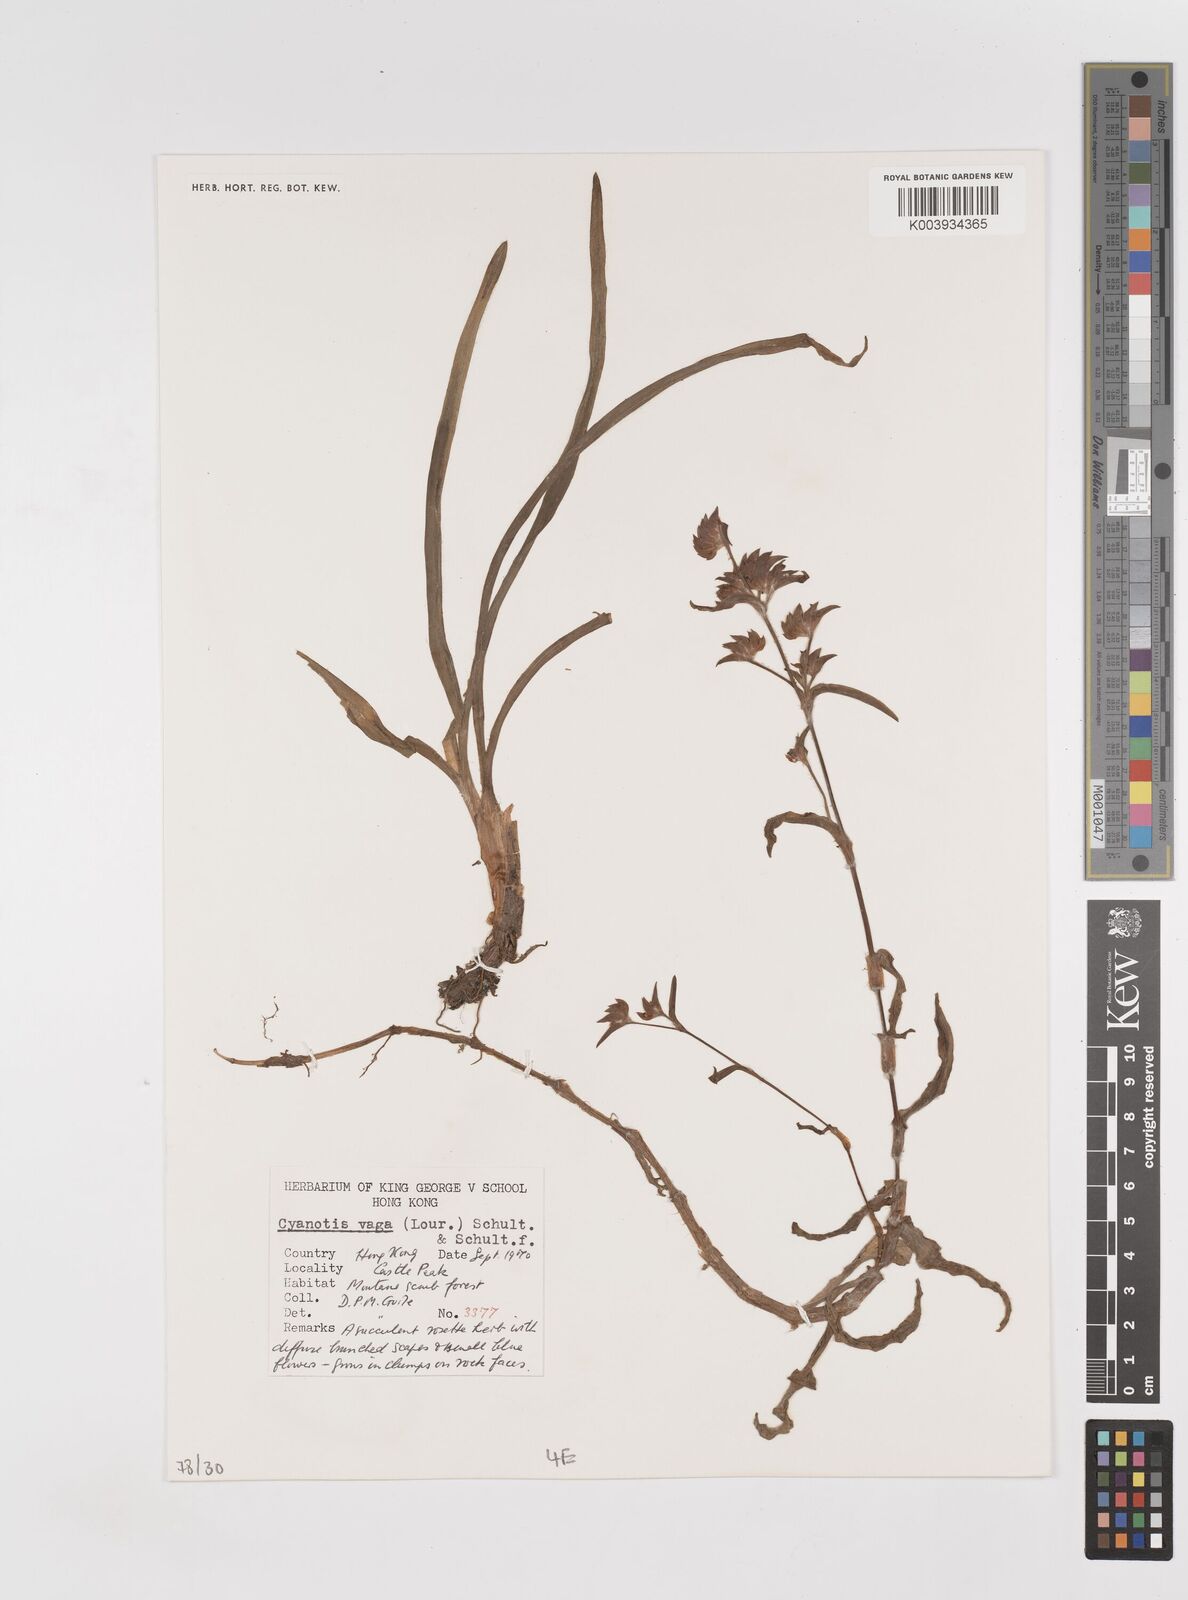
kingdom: Plantae
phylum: Tracheophyta
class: Liliopsida
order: Commelinales
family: Commelinaceae
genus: Cyanotis
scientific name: Cyanotis vaga
